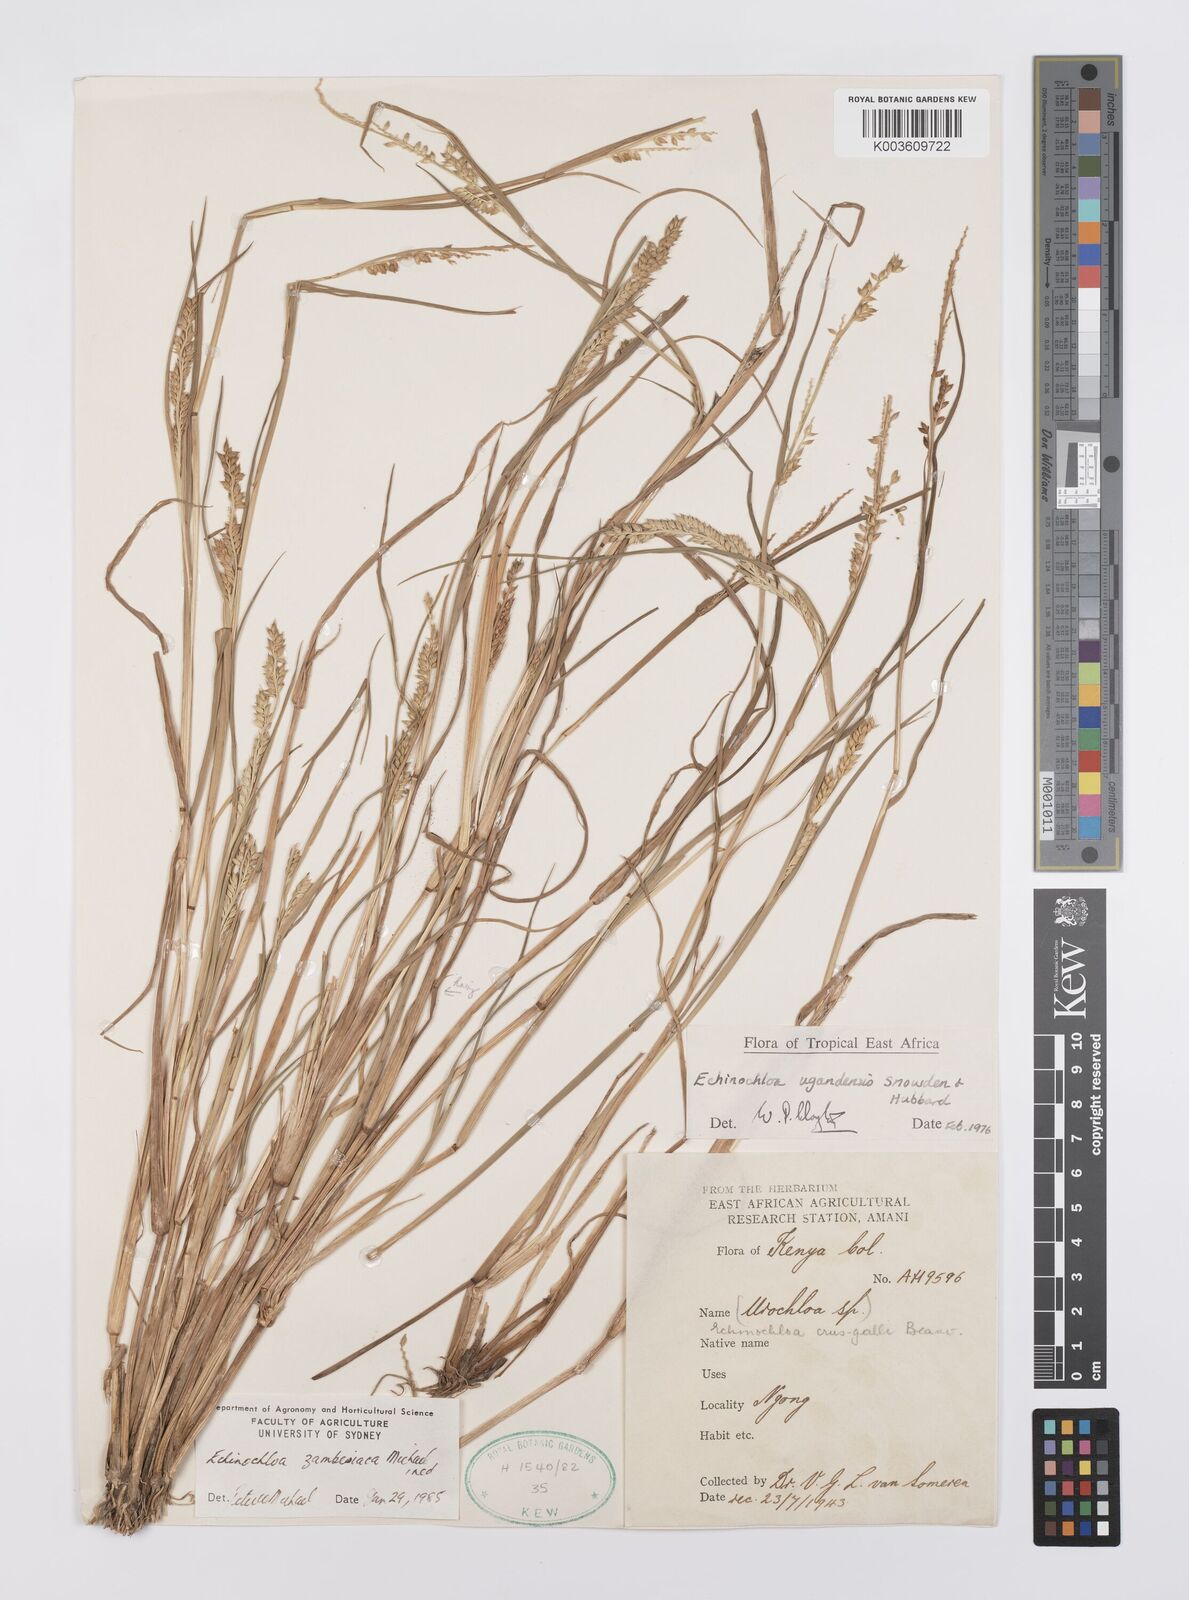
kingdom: Plantae
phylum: Tracheophyta
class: Liliopsida
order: Poales
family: Poaceae
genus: Echinochloa
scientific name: Echinochloa crus-galli
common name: Cockspur
